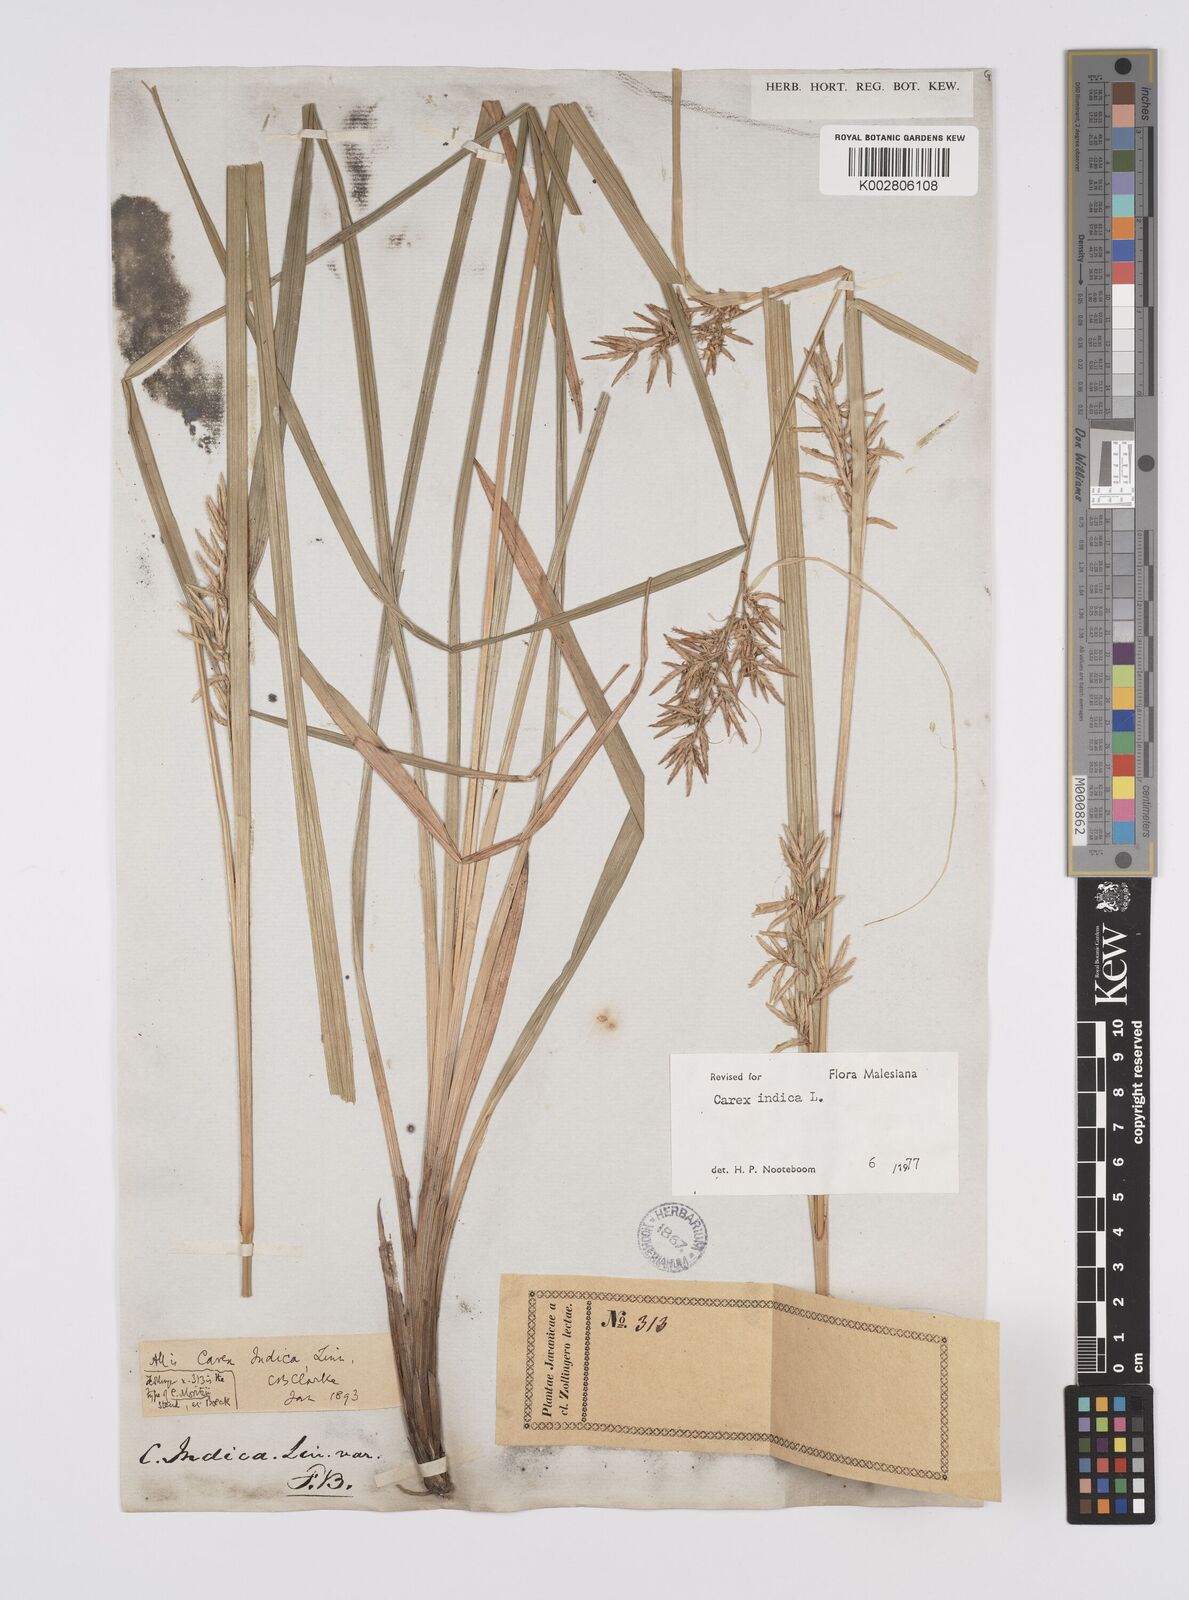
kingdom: Plantae
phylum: Tracheophyta
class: Liliopsida
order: Poales
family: Cyperaceae
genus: Carex
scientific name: Carex indica
